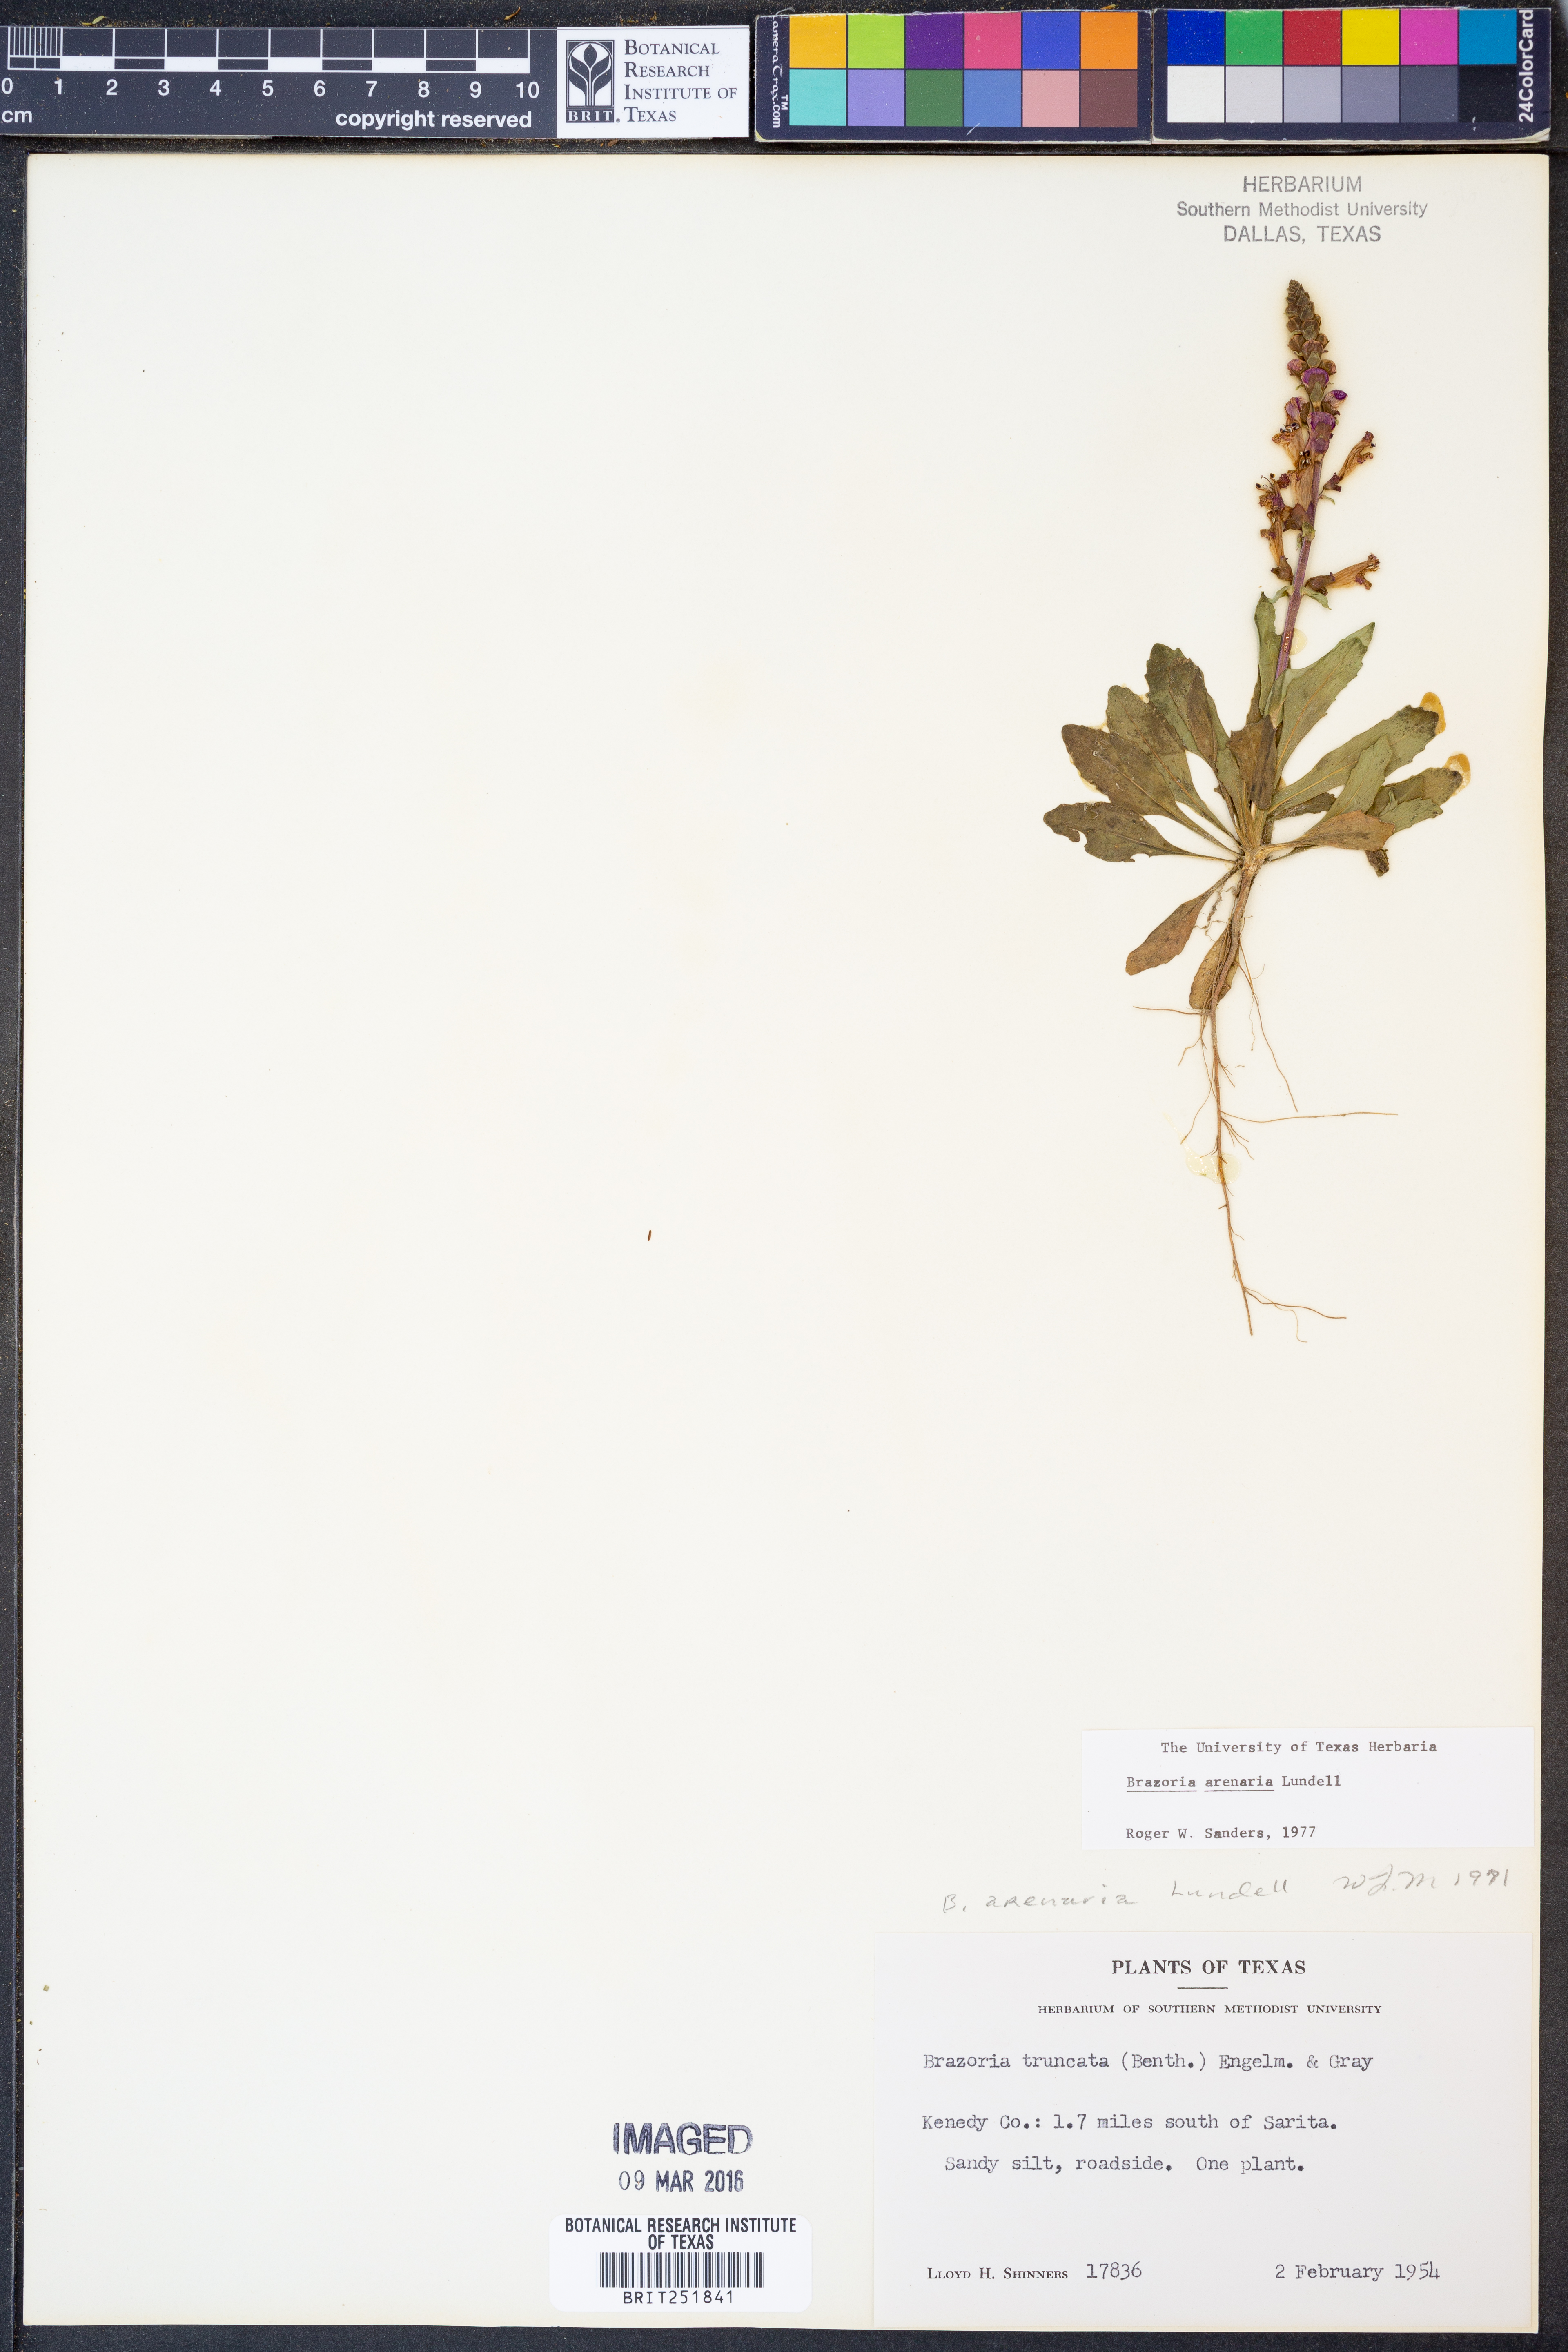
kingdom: Plantae
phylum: Tracheophyta
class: Magnoliopsida
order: Lamiales
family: Lamiaceae
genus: Brazoria
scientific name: Brazoria arenaria
